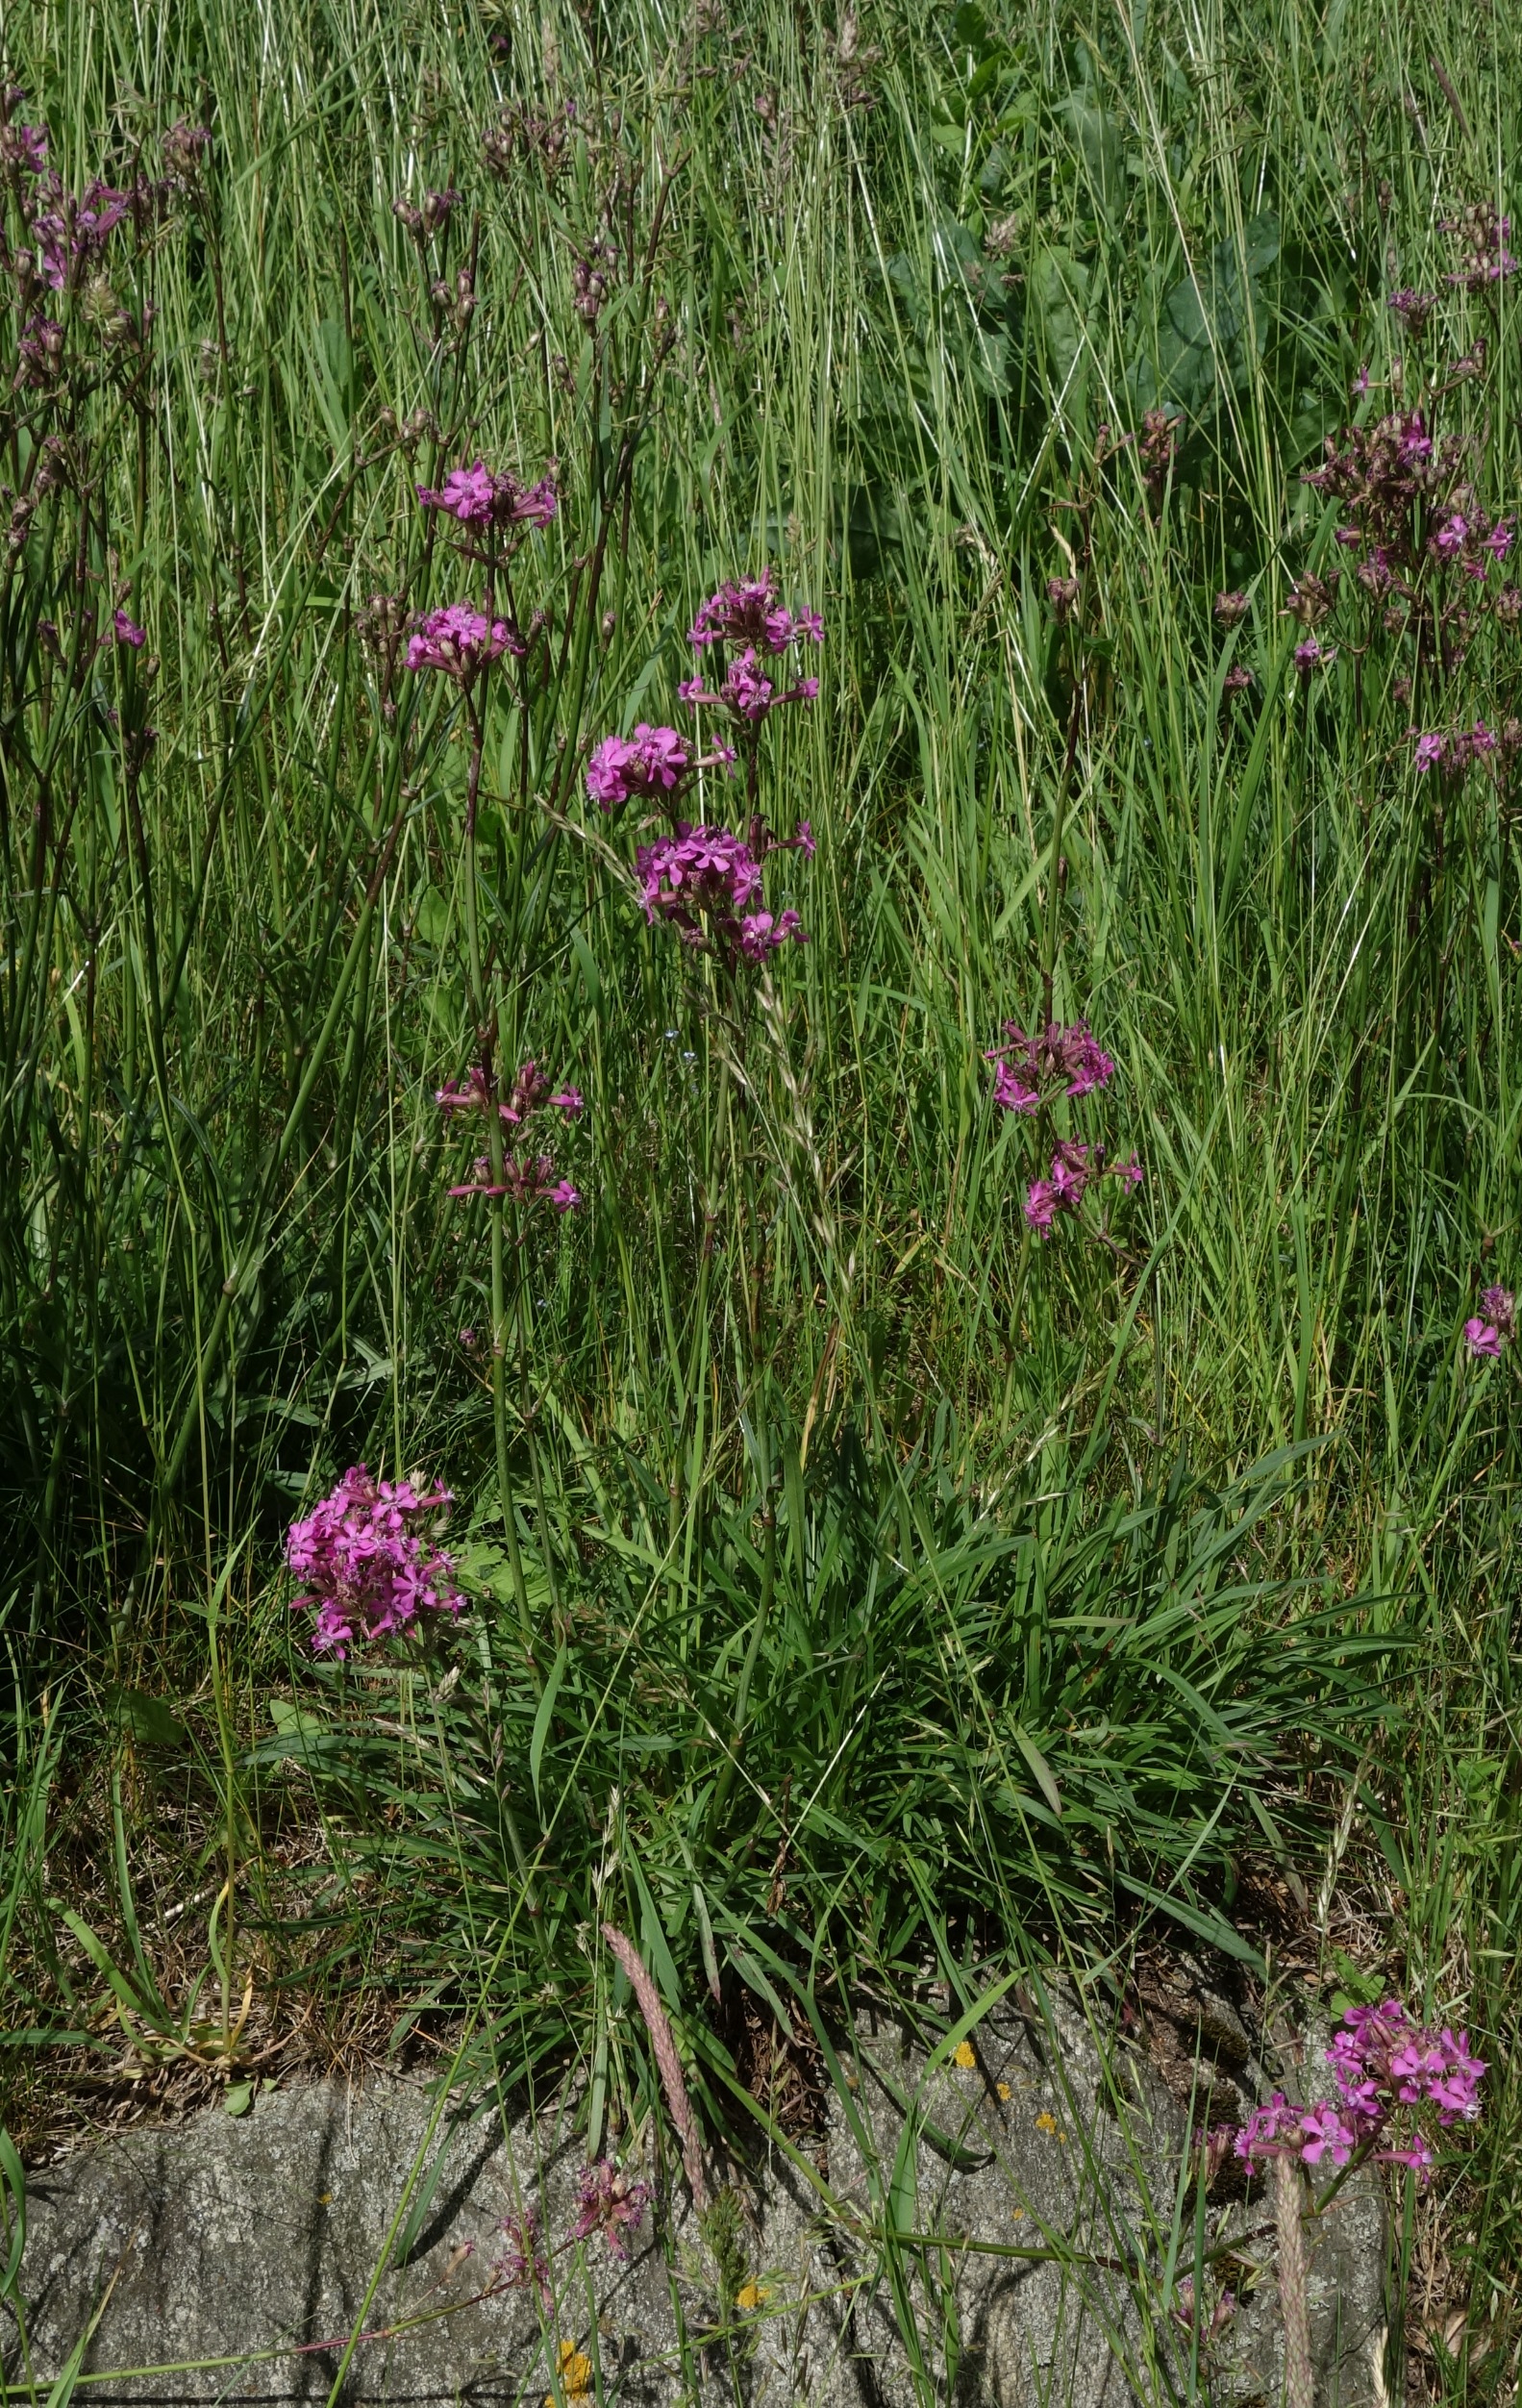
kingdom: Plantae
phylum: Tracheophyta
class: Magnoliopsida
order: Caryophyllales
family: Caryophyllaceae
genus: Viscaria
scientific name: Viscaria vulgaris
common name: Tjærenellike
